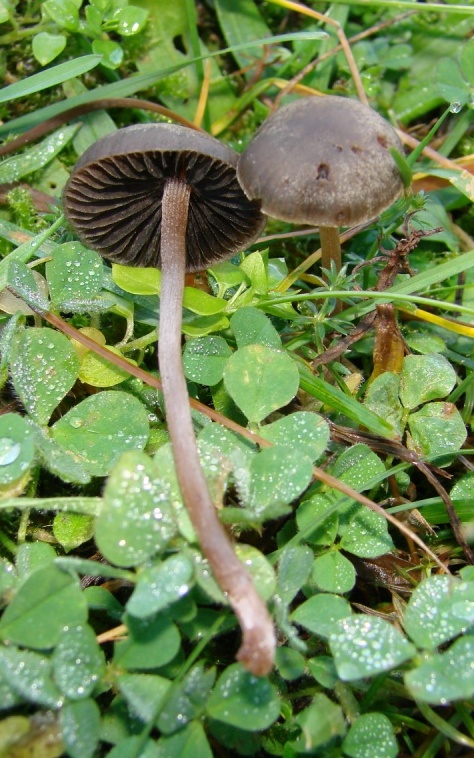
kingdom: Fungi
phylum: Basidiomycota
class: Agaricomycetes
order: Agaricales
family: Bolbitiaceae
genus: Panaeolus
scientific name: Panaeolus olivaceus
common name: lysstokket glanshat
